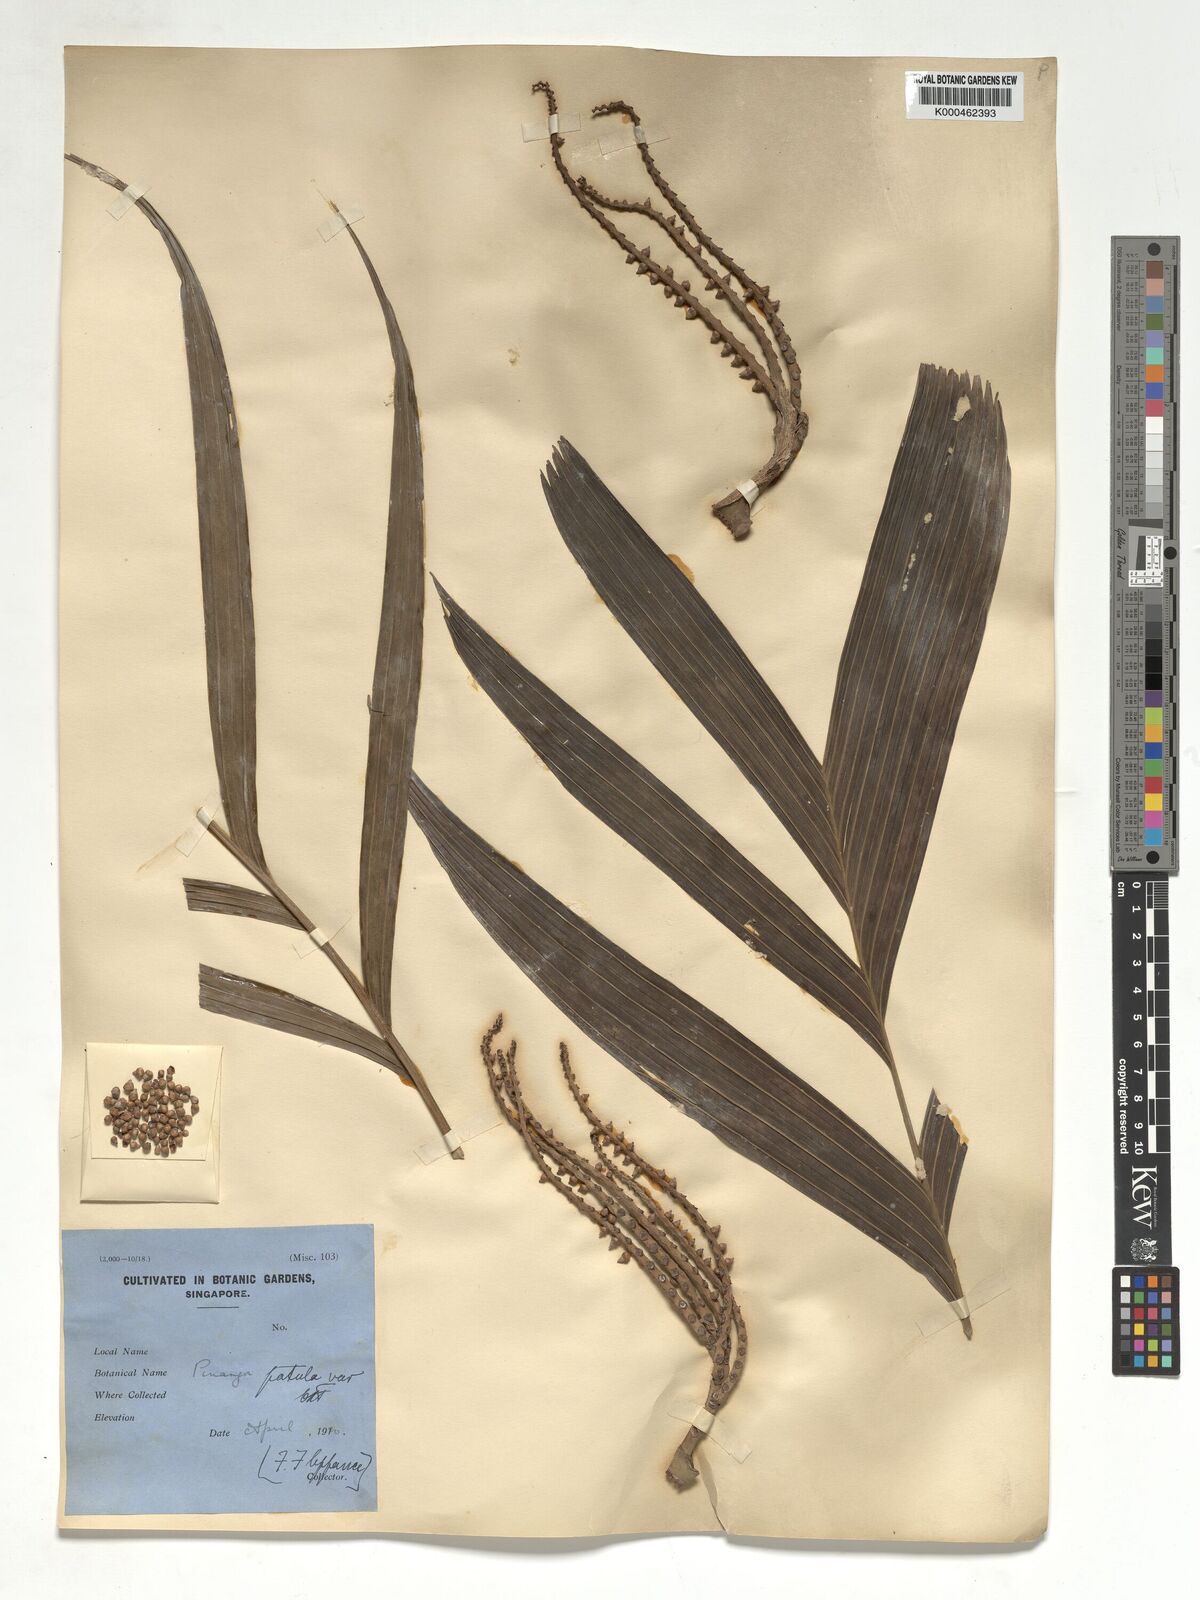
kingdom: Plantae
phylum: Tracheophyta
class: Liliopsida
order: Arecales
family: Arecaceae
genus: Pinanga
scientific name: Pinanga patula
